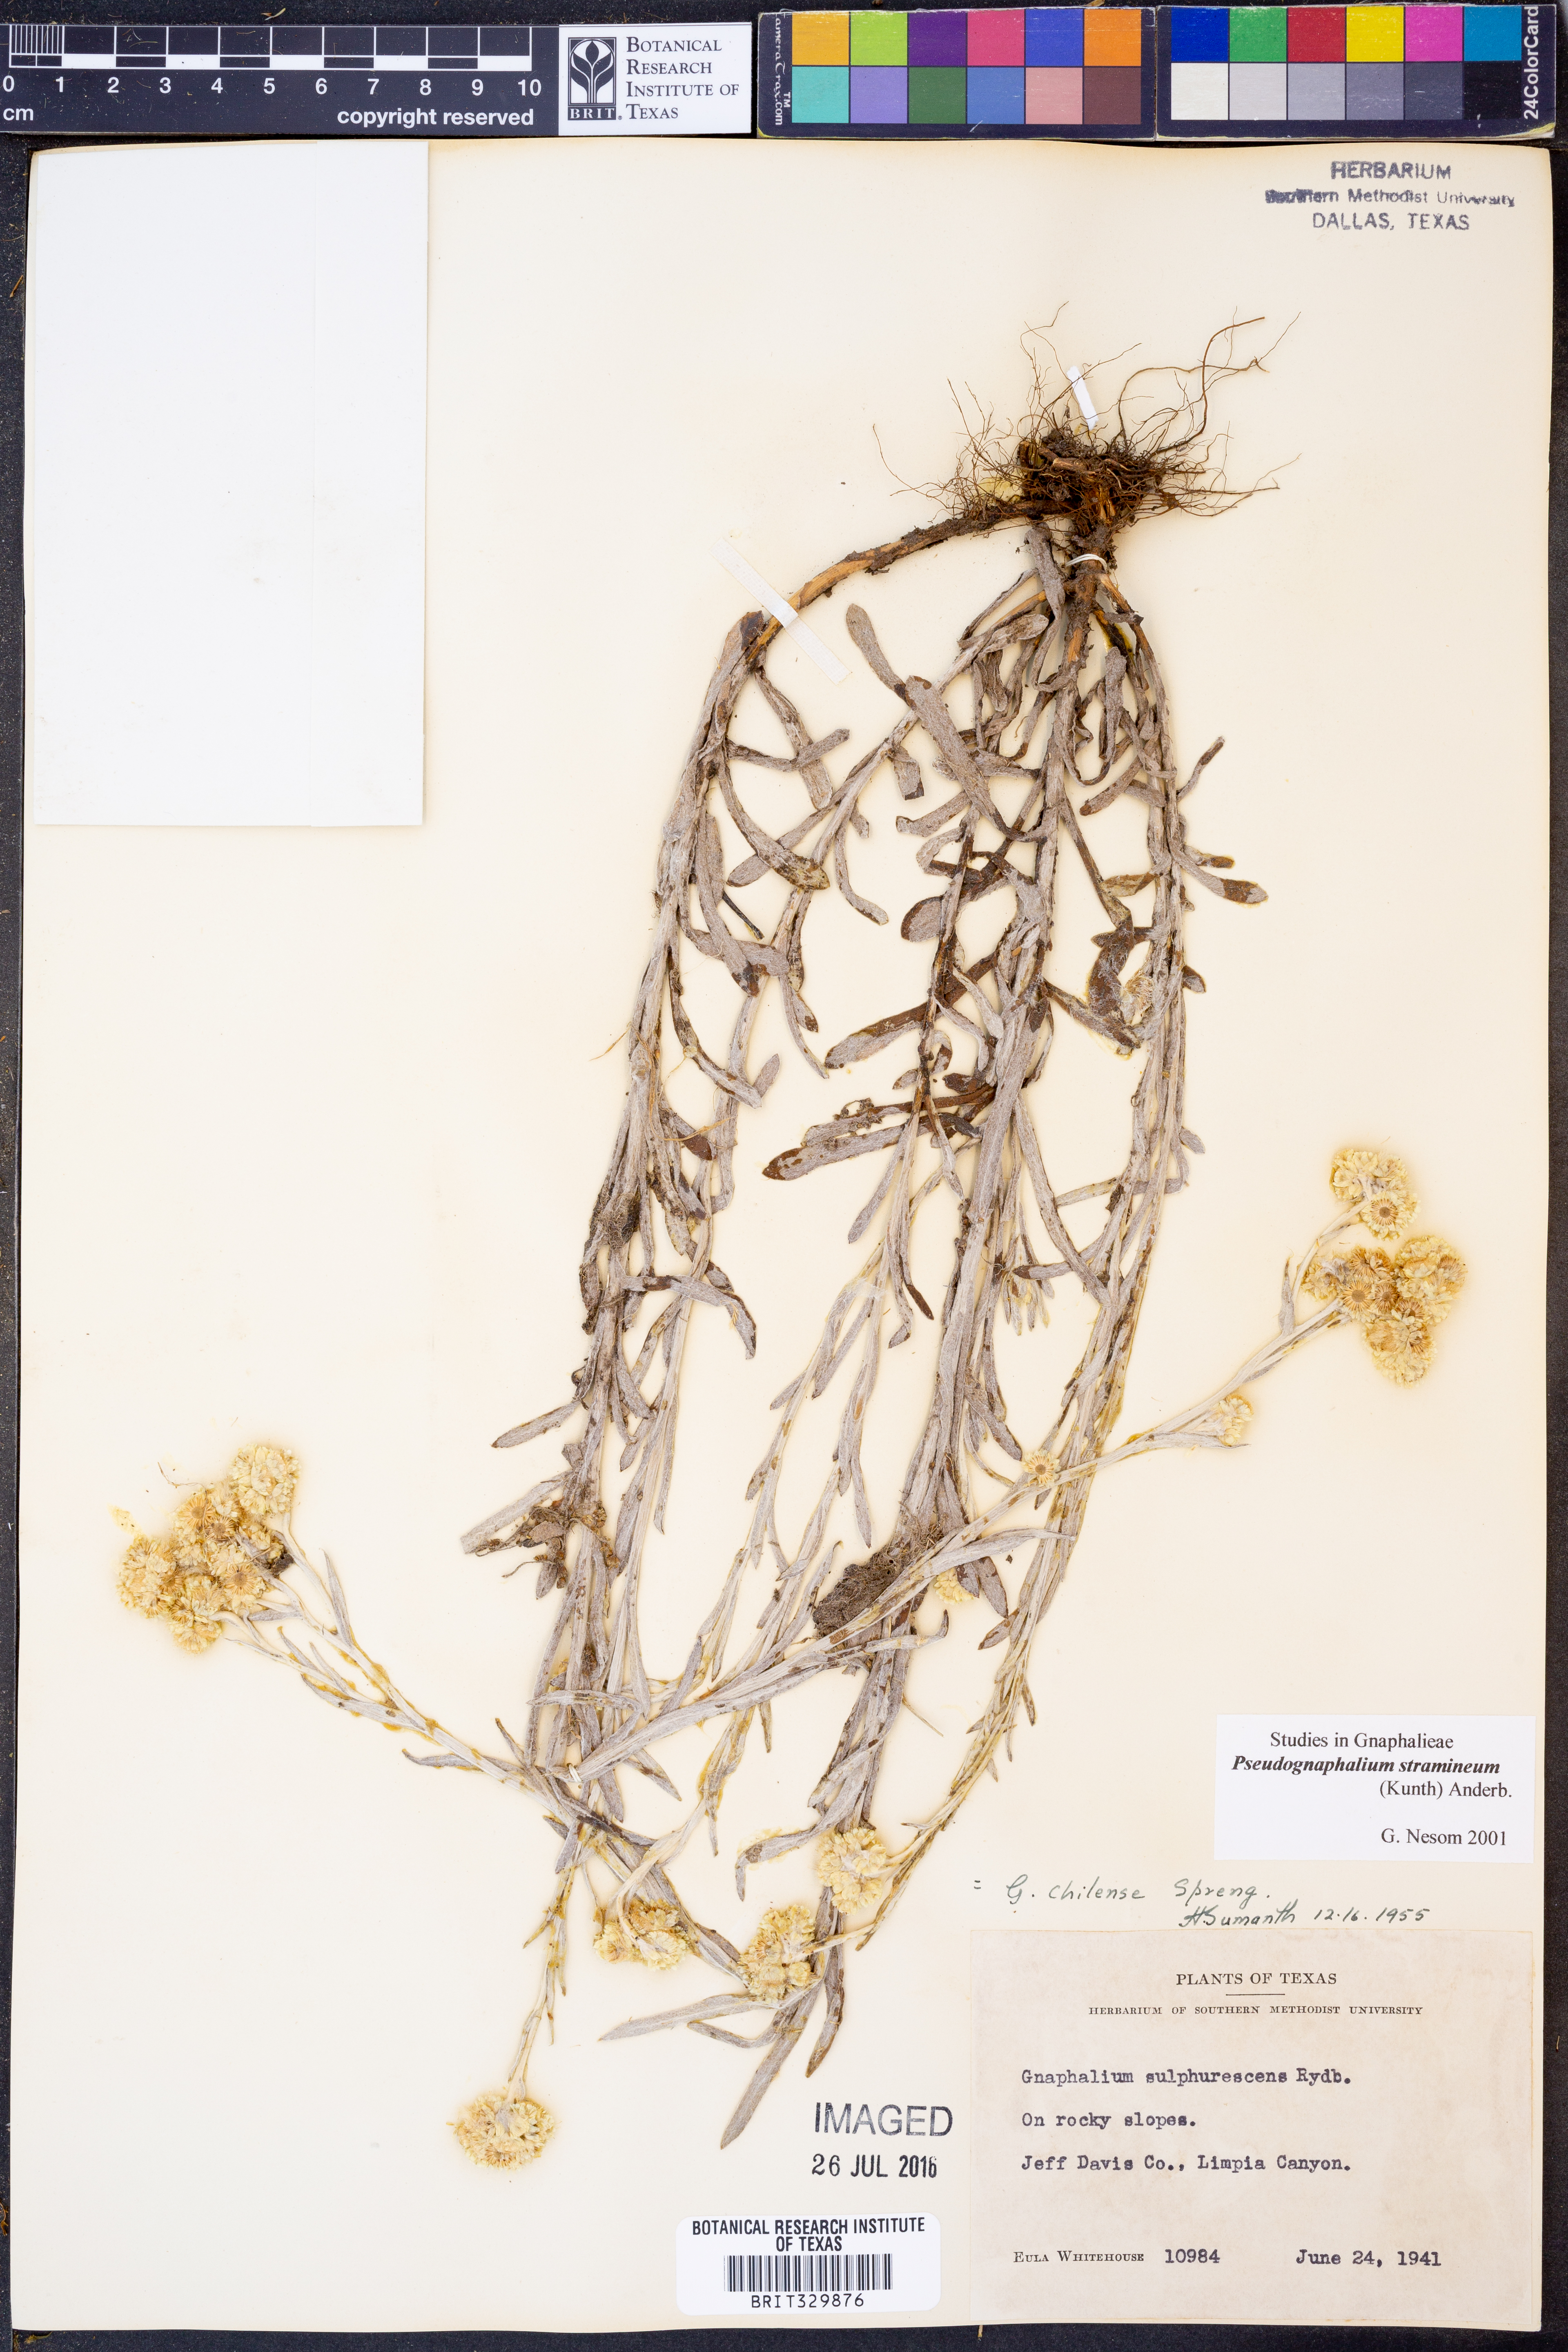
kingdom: Plantae
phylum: Tracheophyta
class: Magnoliopsida
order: Asterales
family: Asteraceae
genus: Pseudognaphalium
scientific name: Pseudognaphalium stramineum
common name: Cotton-batting-plant
